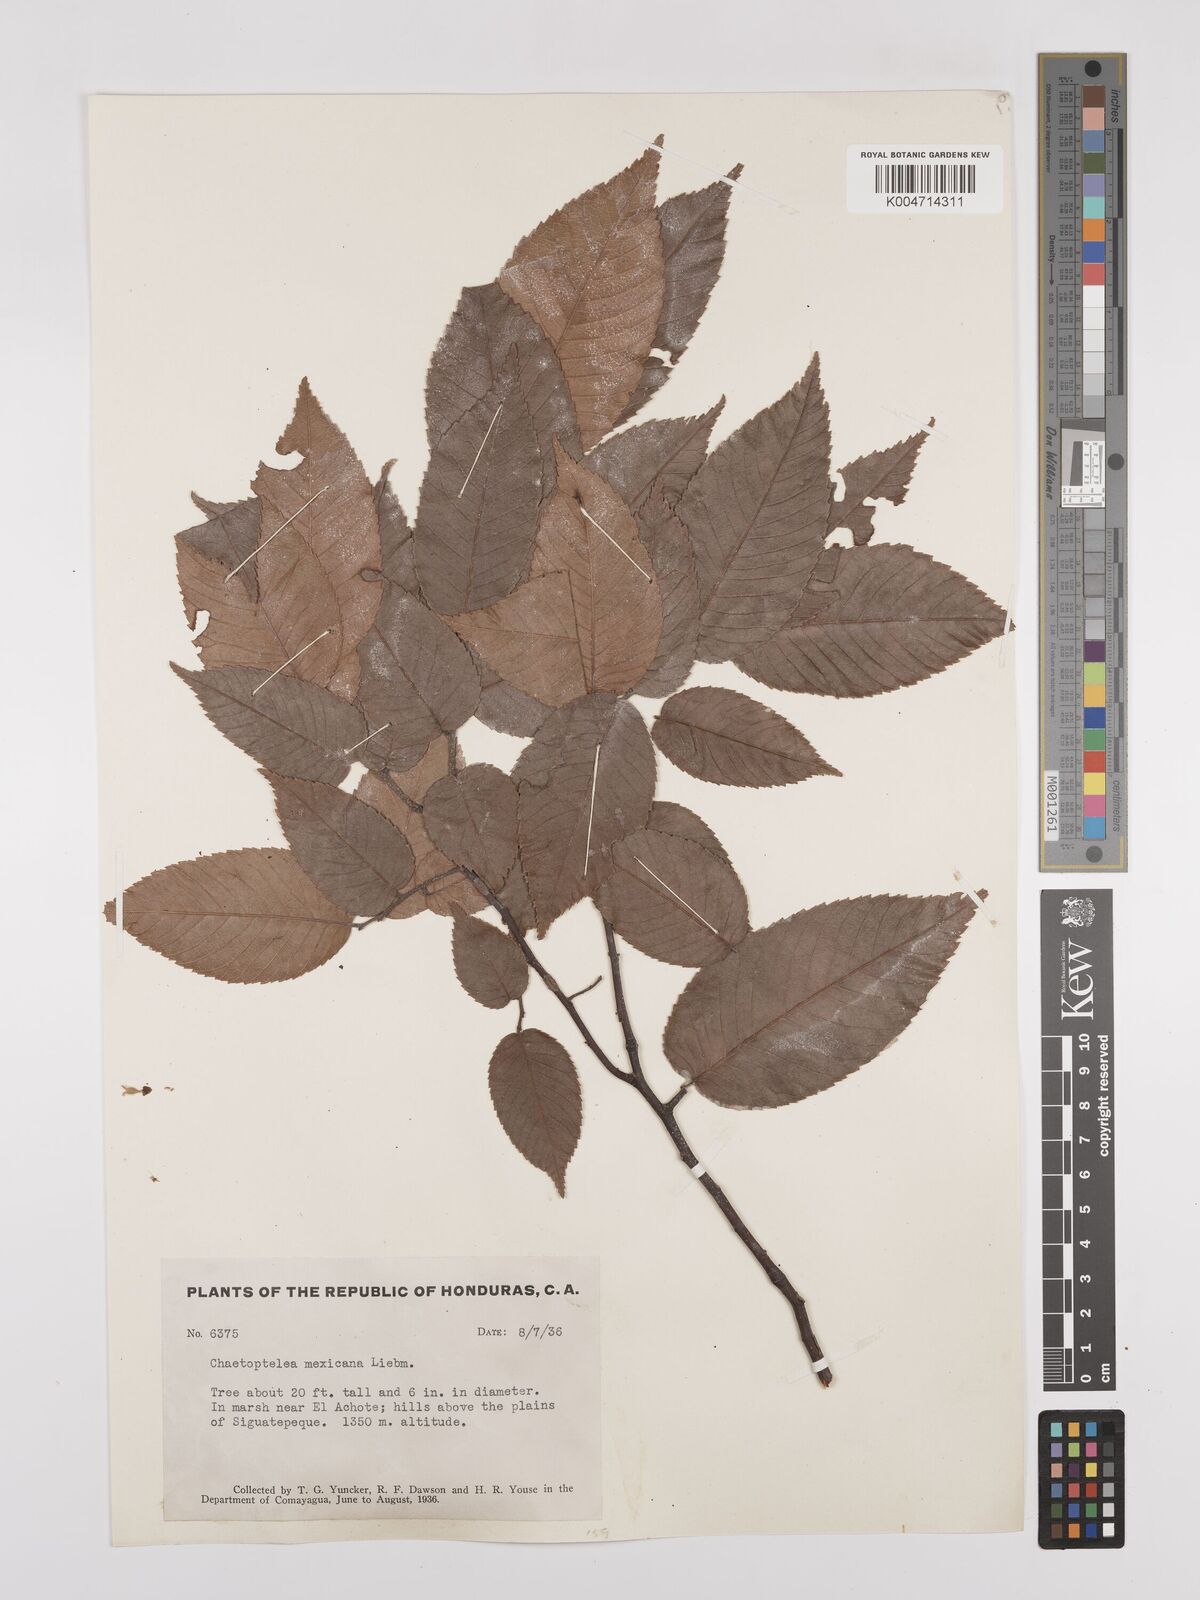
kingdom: Plantae
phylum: Tracheophyta
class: Magnoliopsida
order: Rosales
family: Ulmaceae
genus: Ulmus
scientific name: Ulmus mexicana
